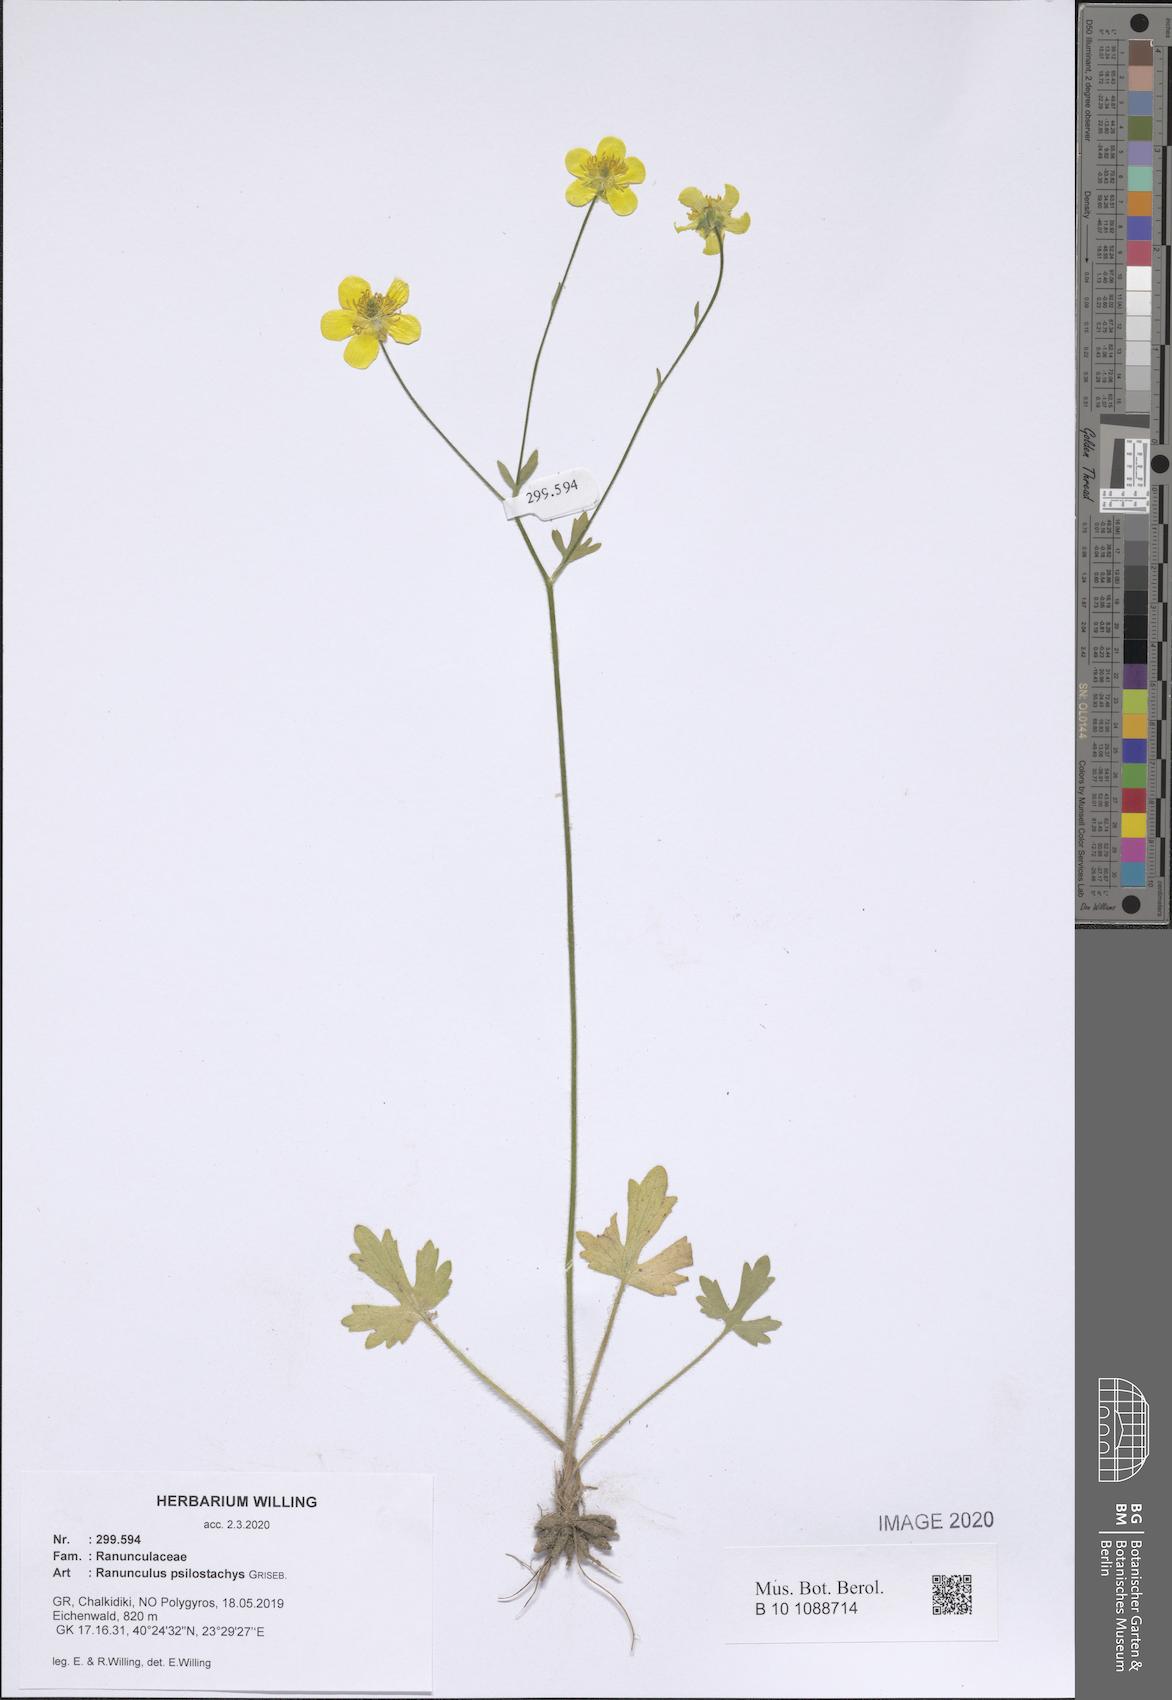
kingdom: Plantae
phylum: Tracheophyta
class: Magnoliopsida
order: Ranunculales
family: Ranunculaceae
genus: Ranunculus
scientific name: Ranunculus psilostachys
